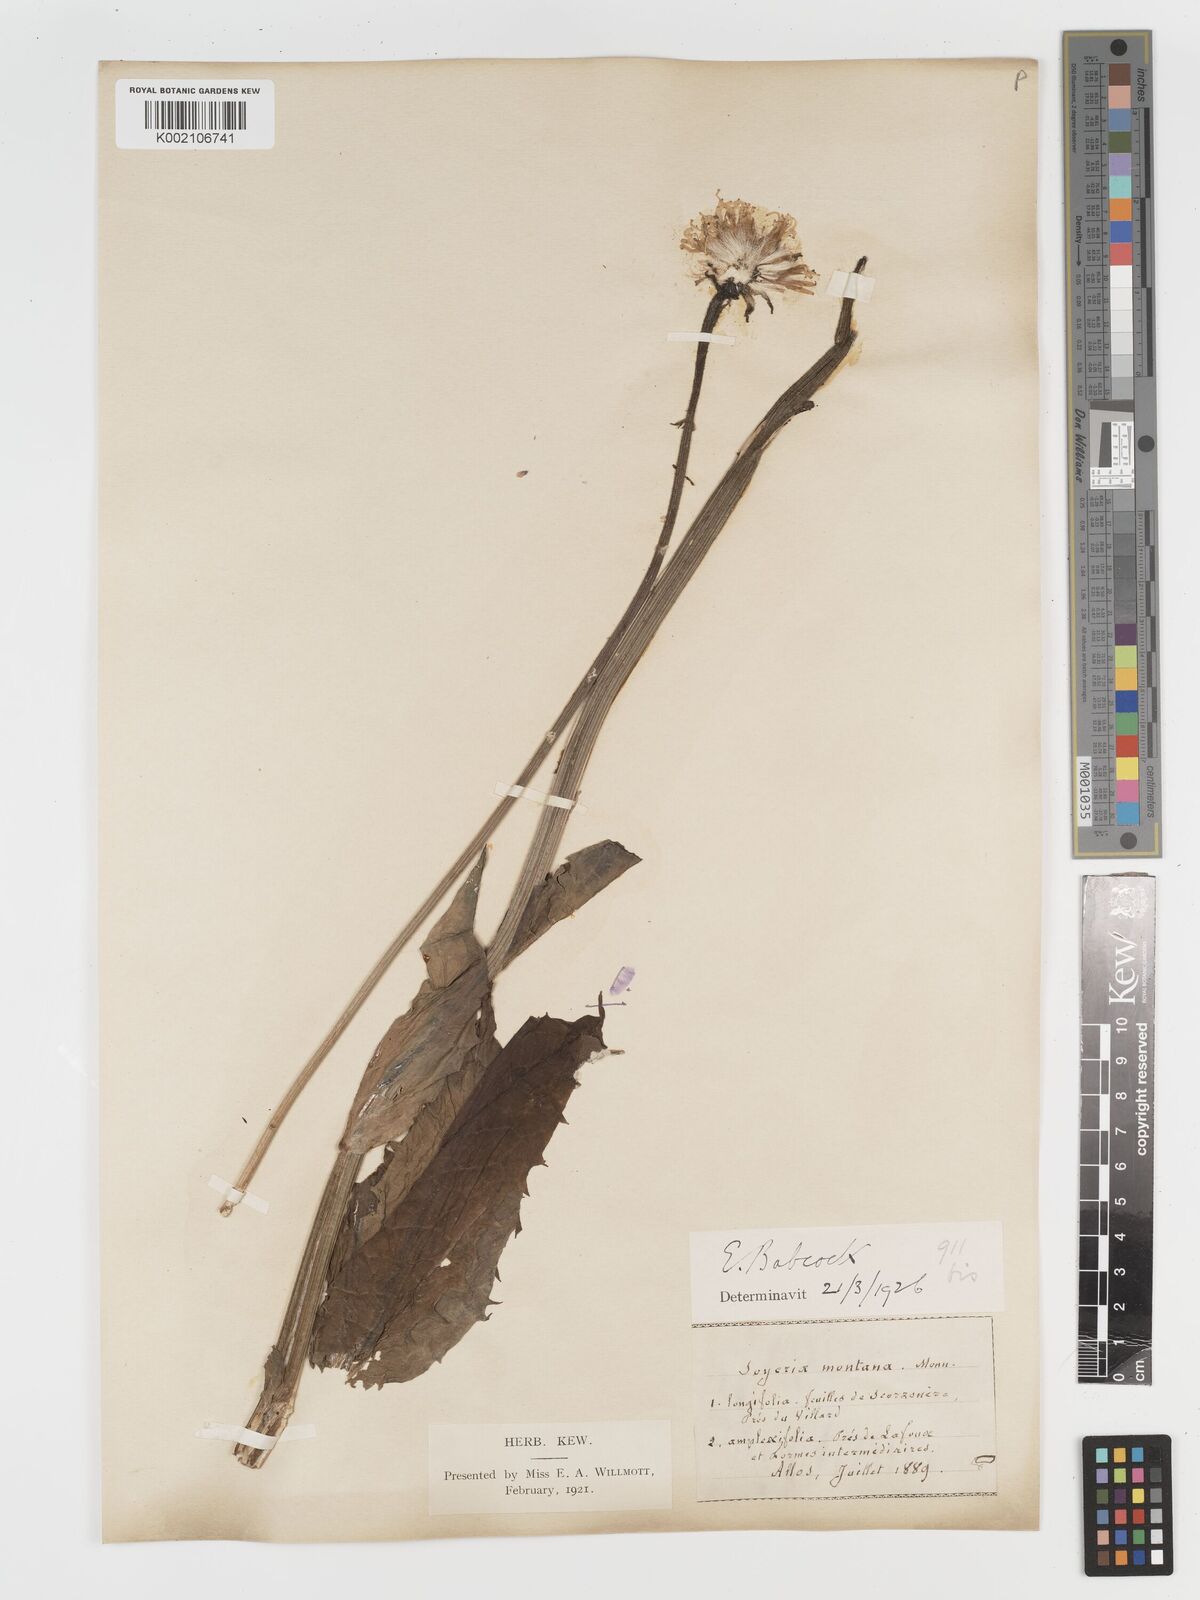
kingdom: Plantae
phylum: Tracheophyta
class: Magnoliopsida
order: Asterales
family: Asteraceae
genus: Crepis
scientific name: Crepis pontana
